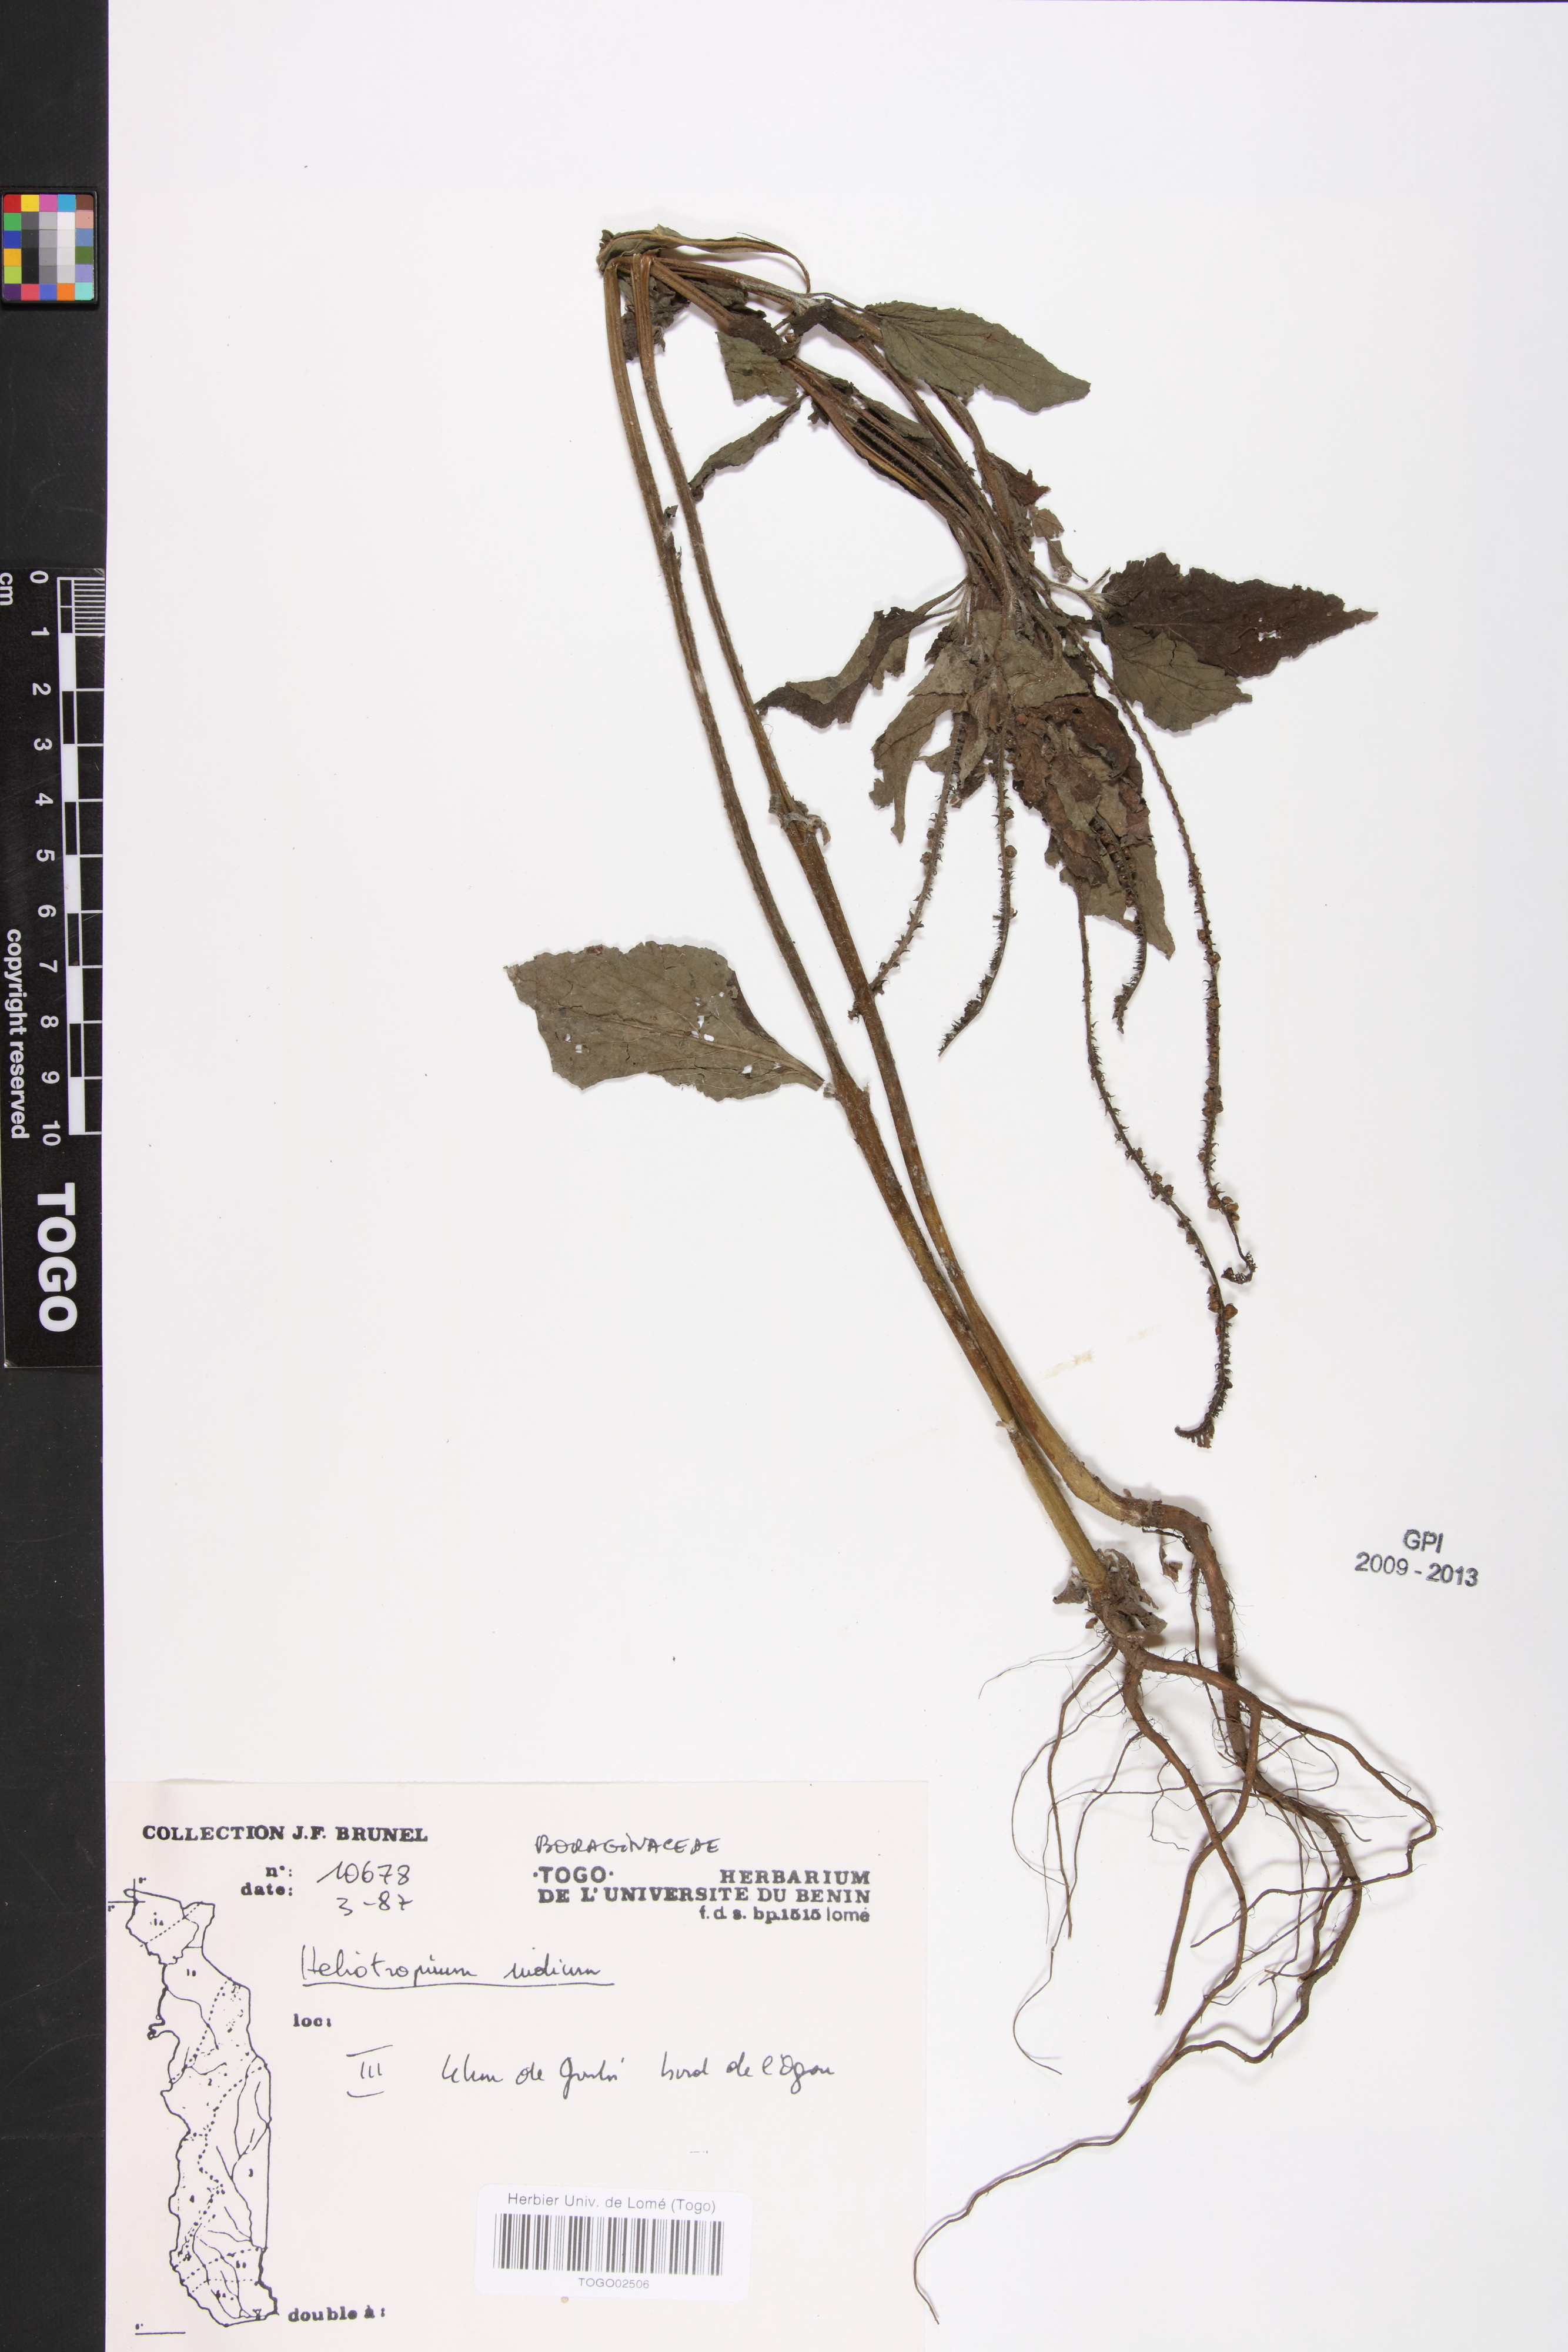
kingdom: Plantae
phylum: Tracheophyta
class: Magnoliopsida
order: Boraginales
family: Heliotropiaceae
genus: Heliotropium
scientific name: Heliotropium indicum
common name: Indian heliotrope
